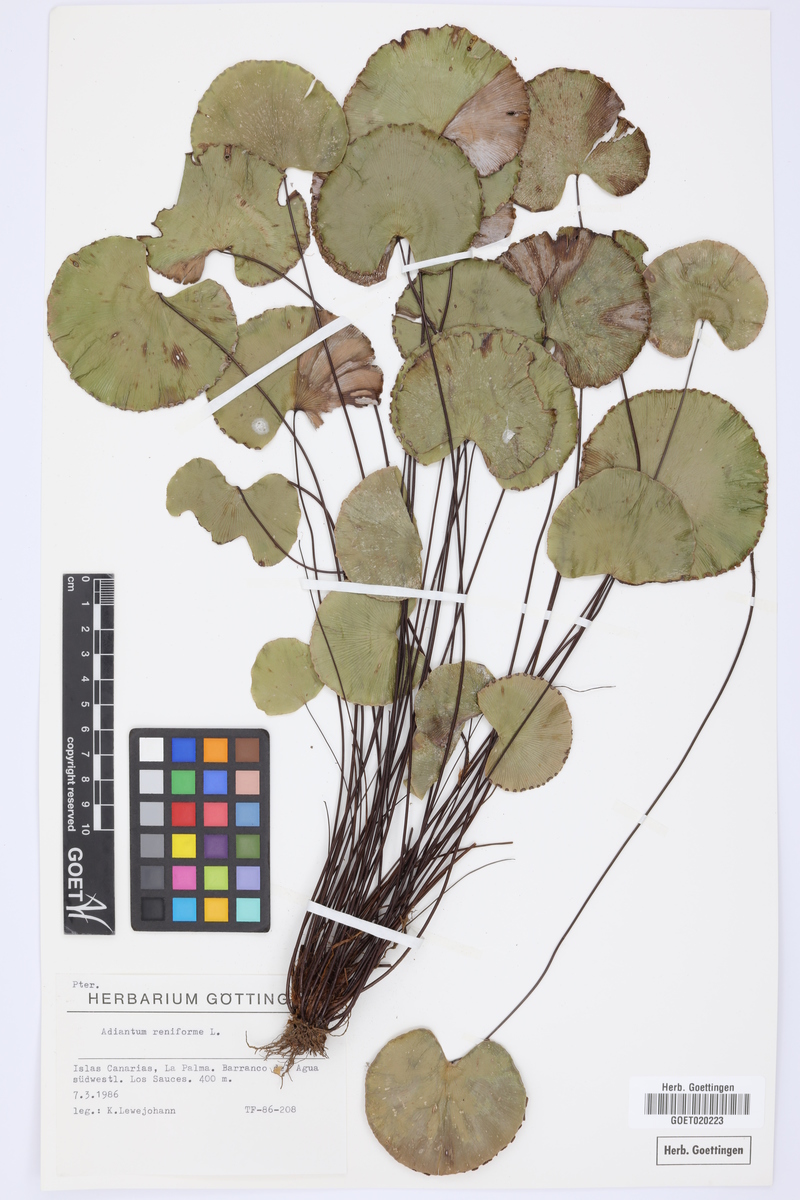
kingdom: Plantae
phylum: Tracheophyta
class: Polypodiopsida
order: Polypodiales
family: Pteridaceae
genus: Adiantum
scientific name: Adiantum reniforme
